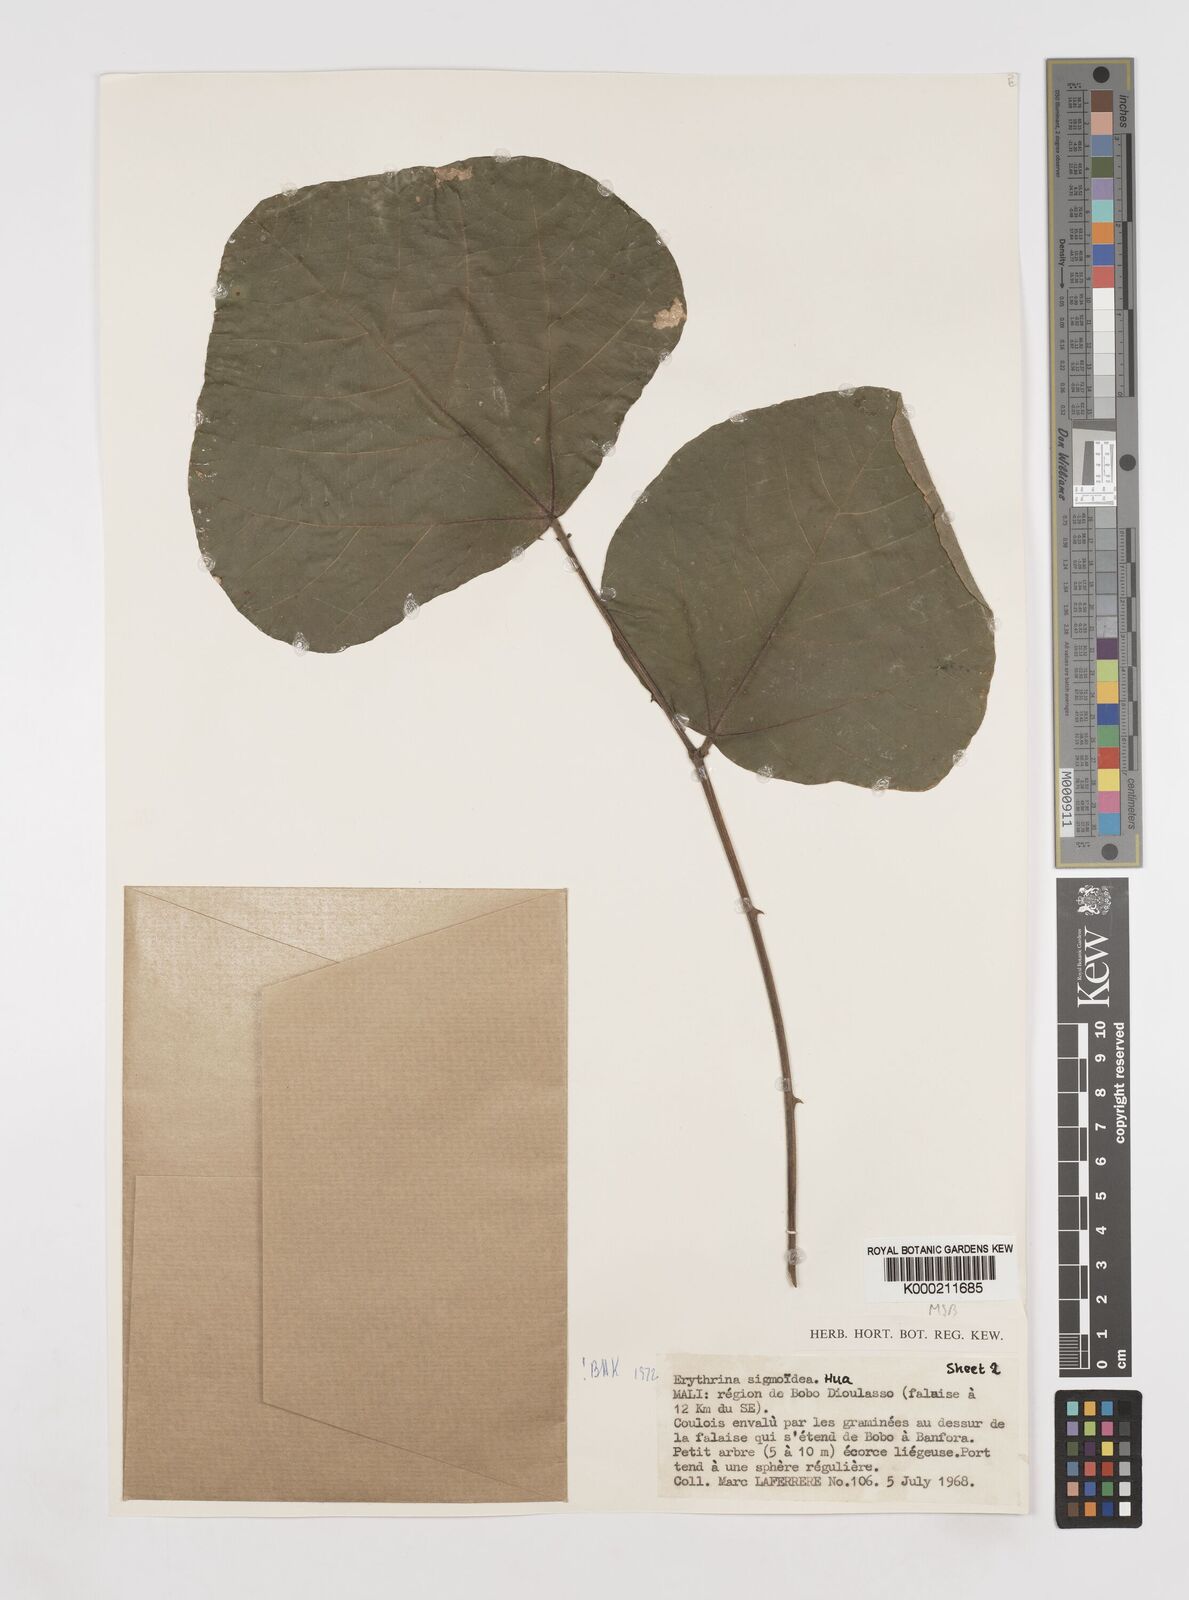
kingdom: Plantae
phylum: Tracheophyta
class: Magnoliopsida
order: Fabales
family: Fabaceae
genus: Erythrina
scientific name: Erythrina sigmoidea
